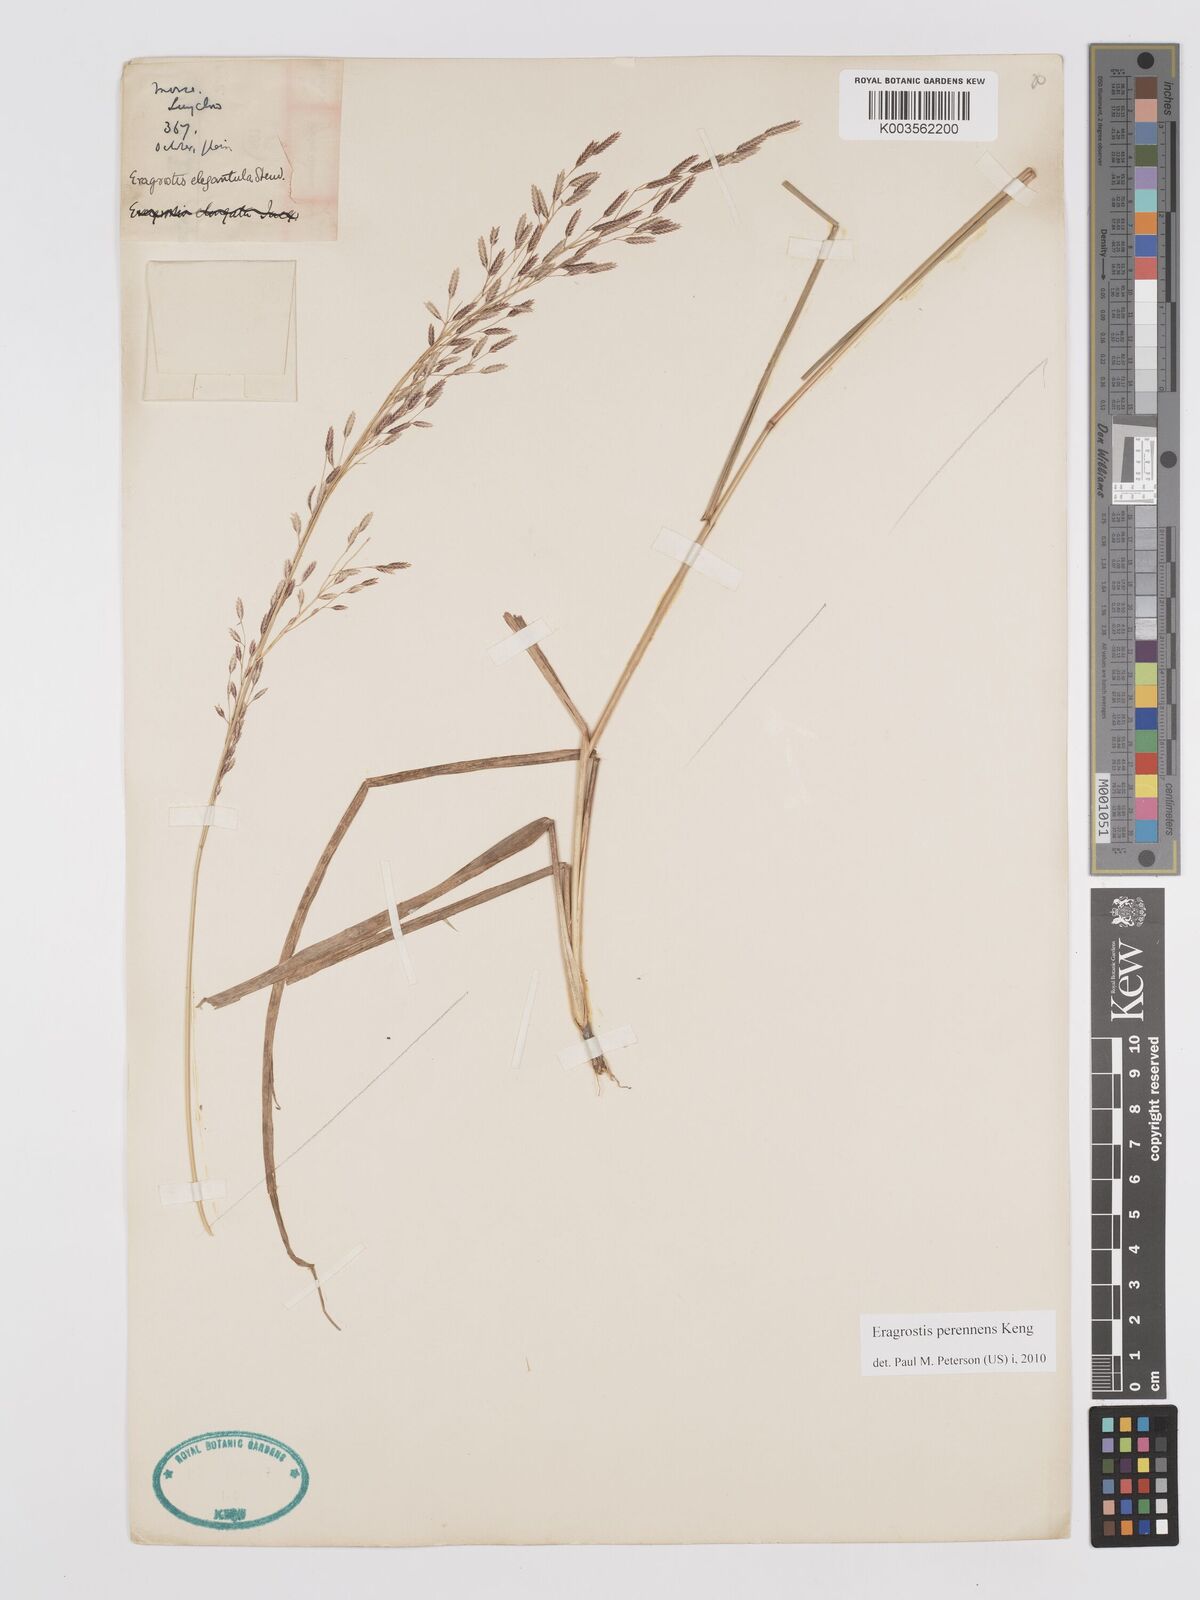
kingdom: Plantae
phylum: Tracheophyta
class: Liliopsida
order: Poales
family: Poaceae
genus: Eragrostis
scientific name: Eragrostis perennans
